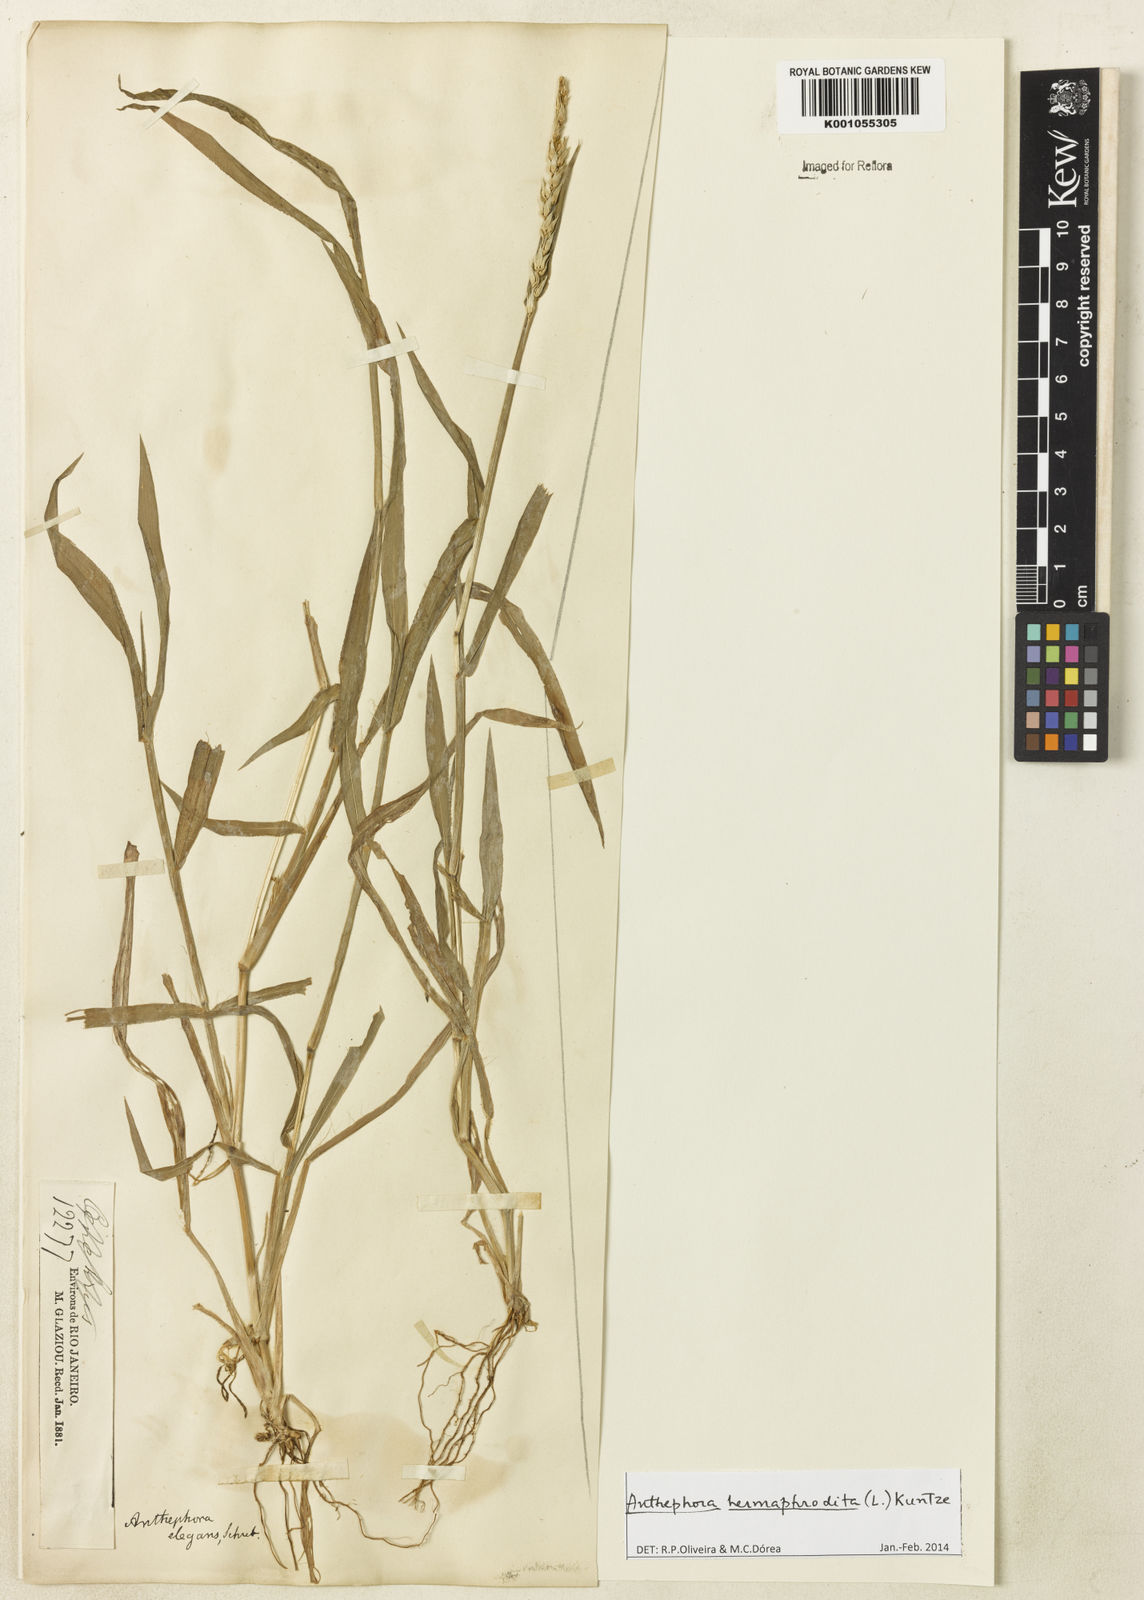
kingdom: Plantae
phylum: Tracheophyta
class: Liliopsida
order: Poales
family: Poaceae
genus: Anthephora
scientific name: Anthephora hermaphrodita
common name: Oldfield grass
